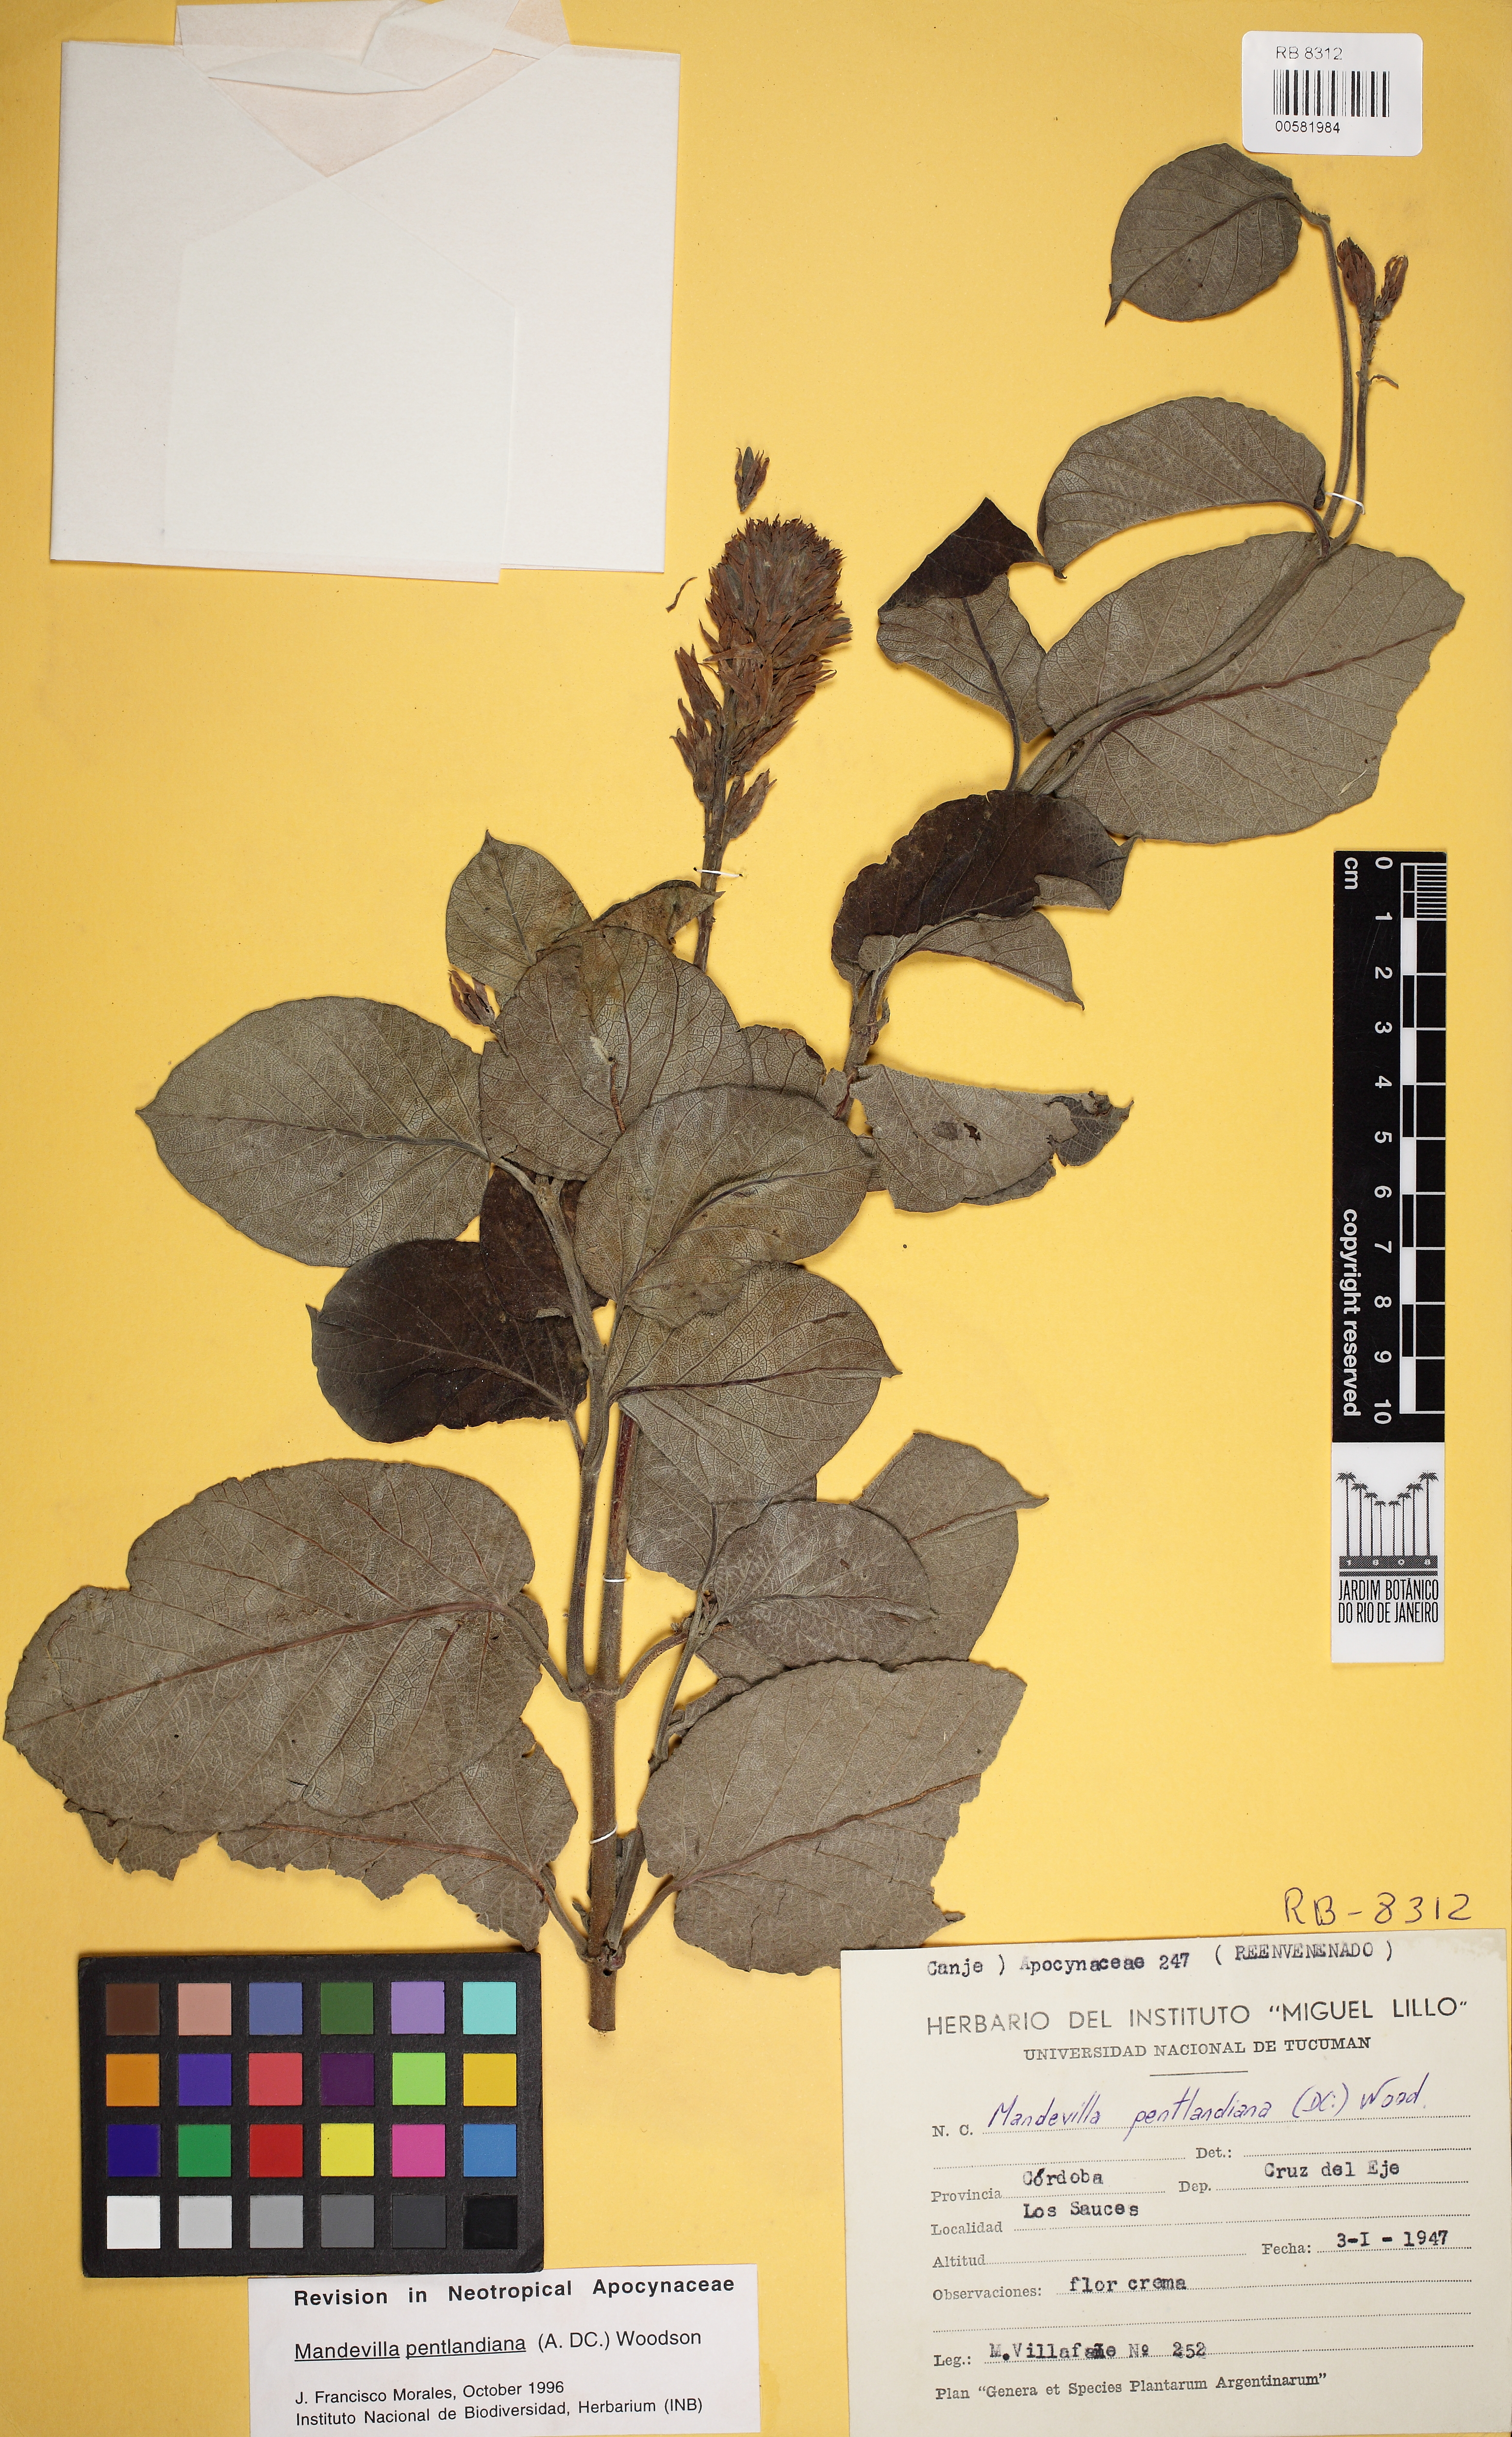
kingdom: Plantae
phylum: Tracheophyta
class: Magnoliopsida
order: Gentianales
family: Apocynaceae
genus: Mandevilla
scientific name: Mandevilla pentlandiana
